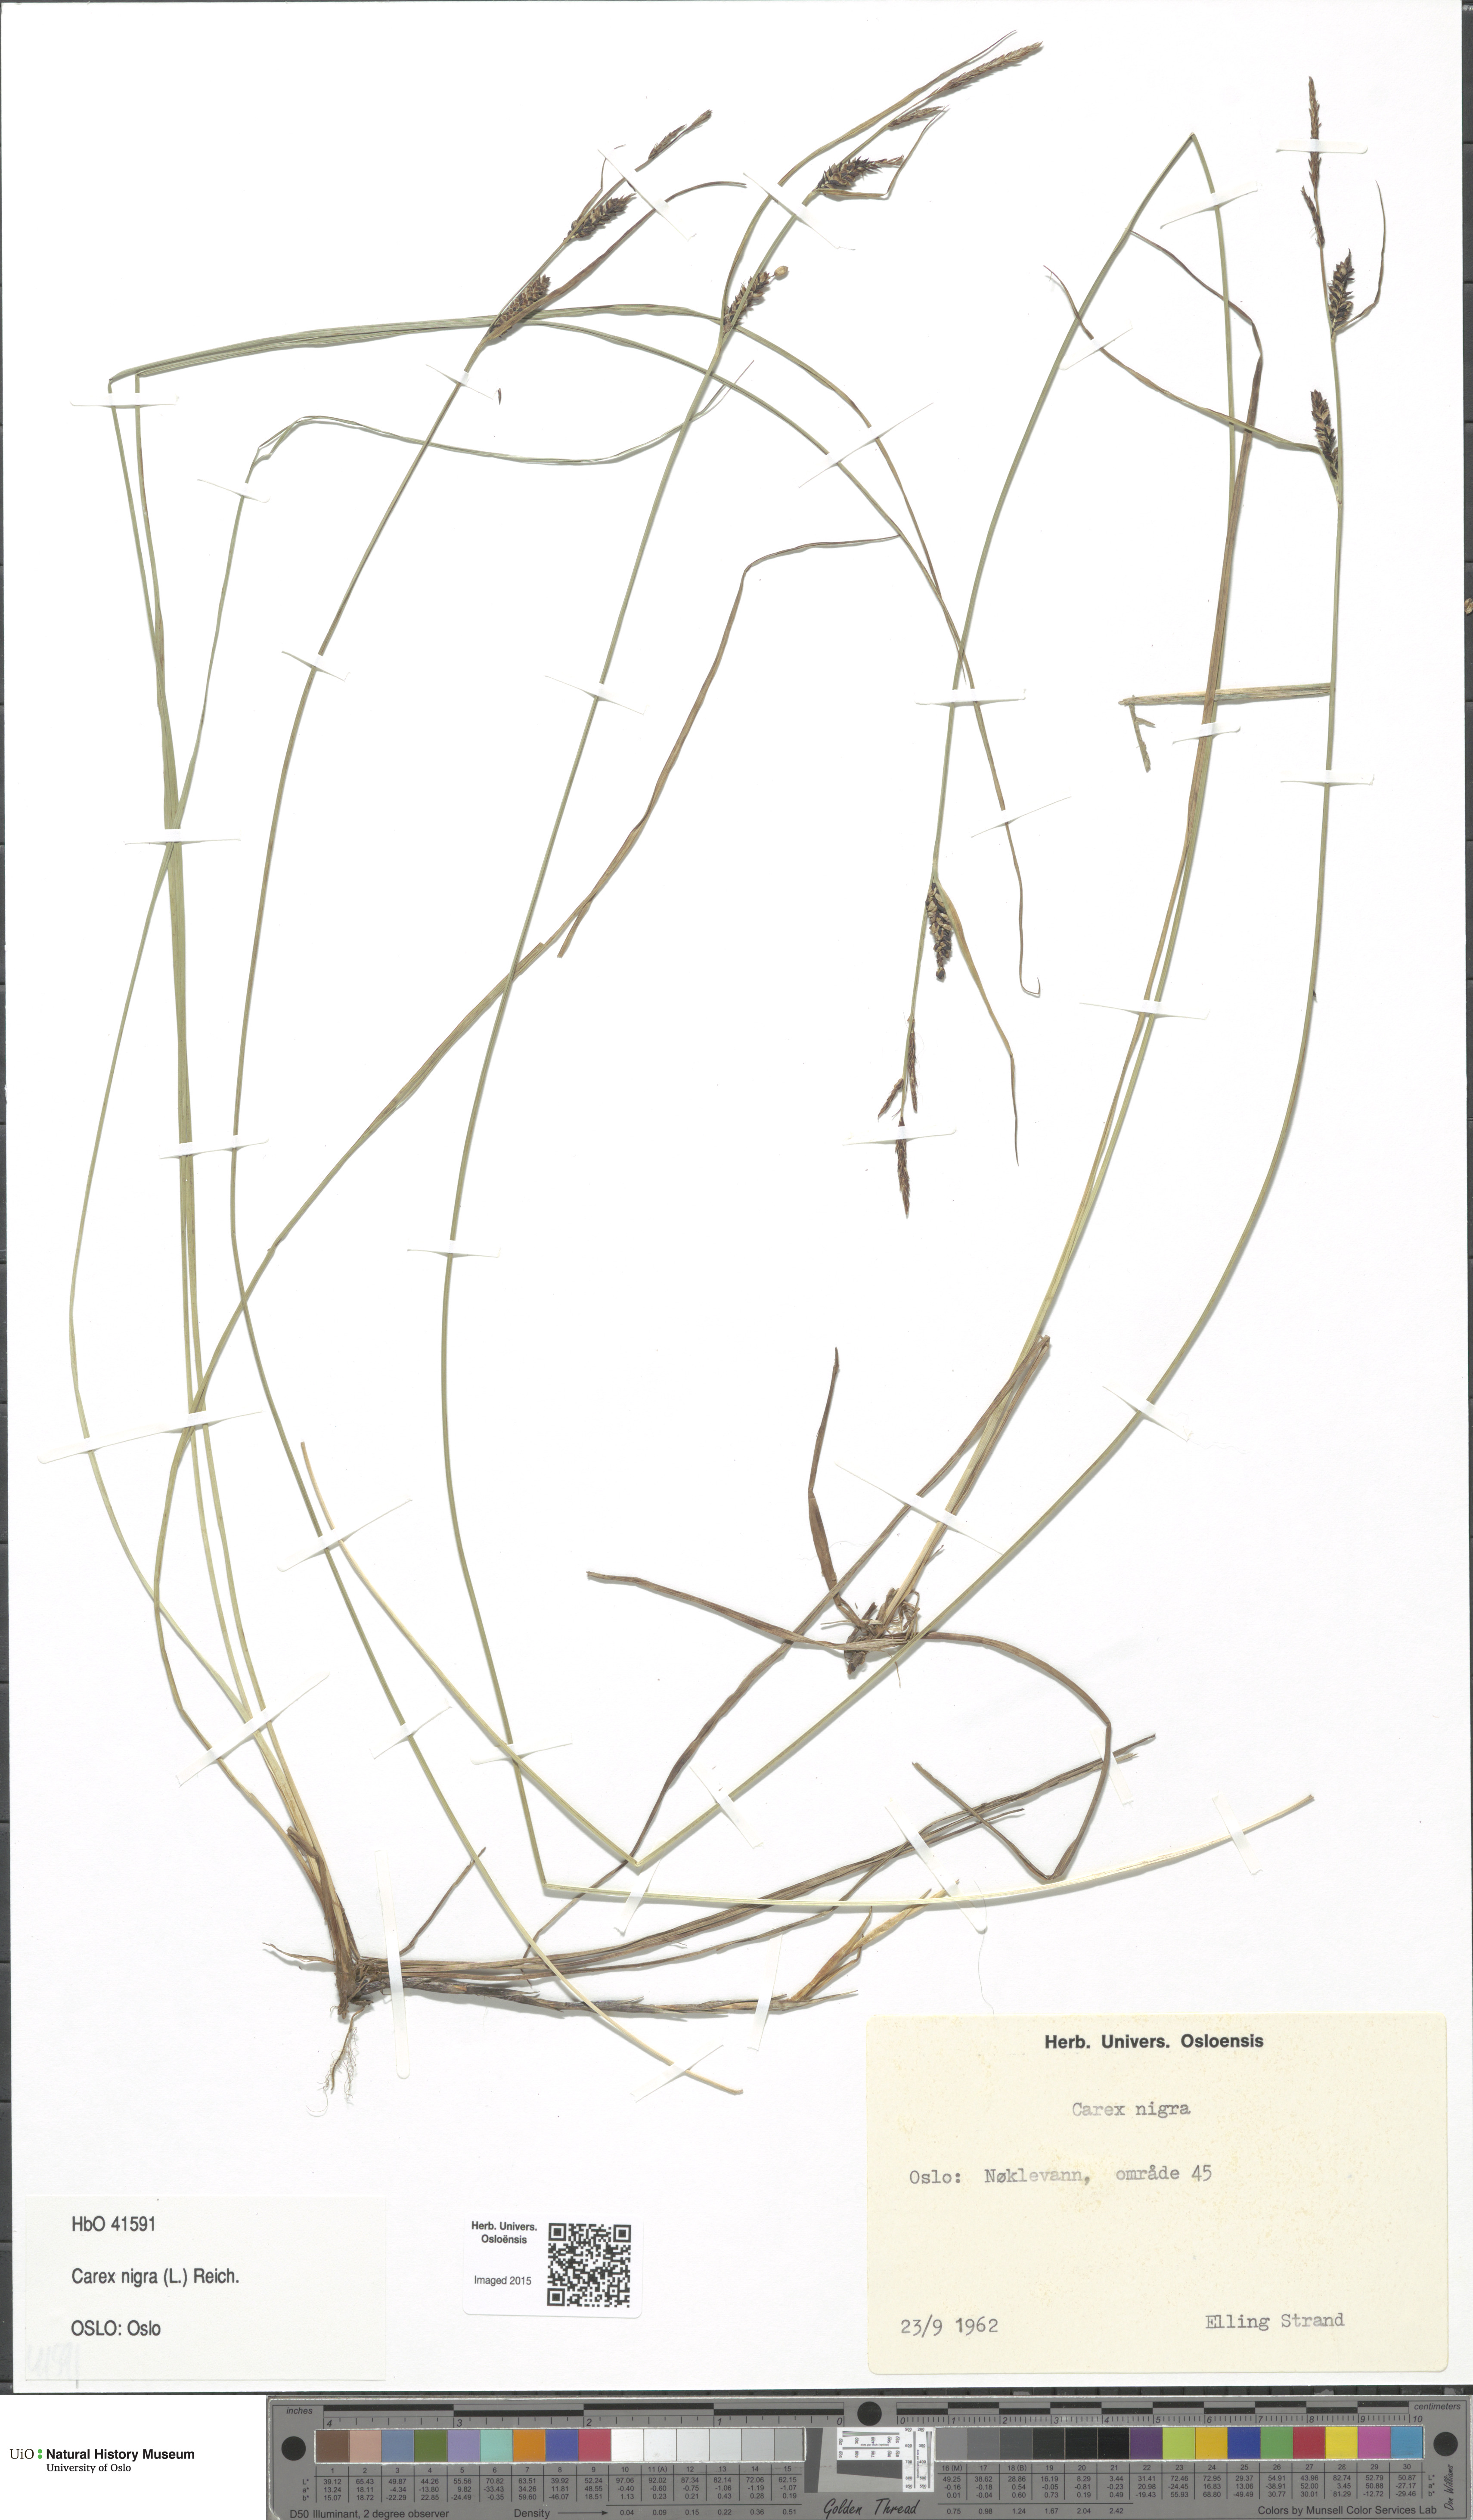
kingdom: Plantae
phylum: Tracheophyta
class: Liliopsida
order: Poales
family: Cyperaceae
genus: Carex
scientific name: Carex nigra
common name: Common sedge
